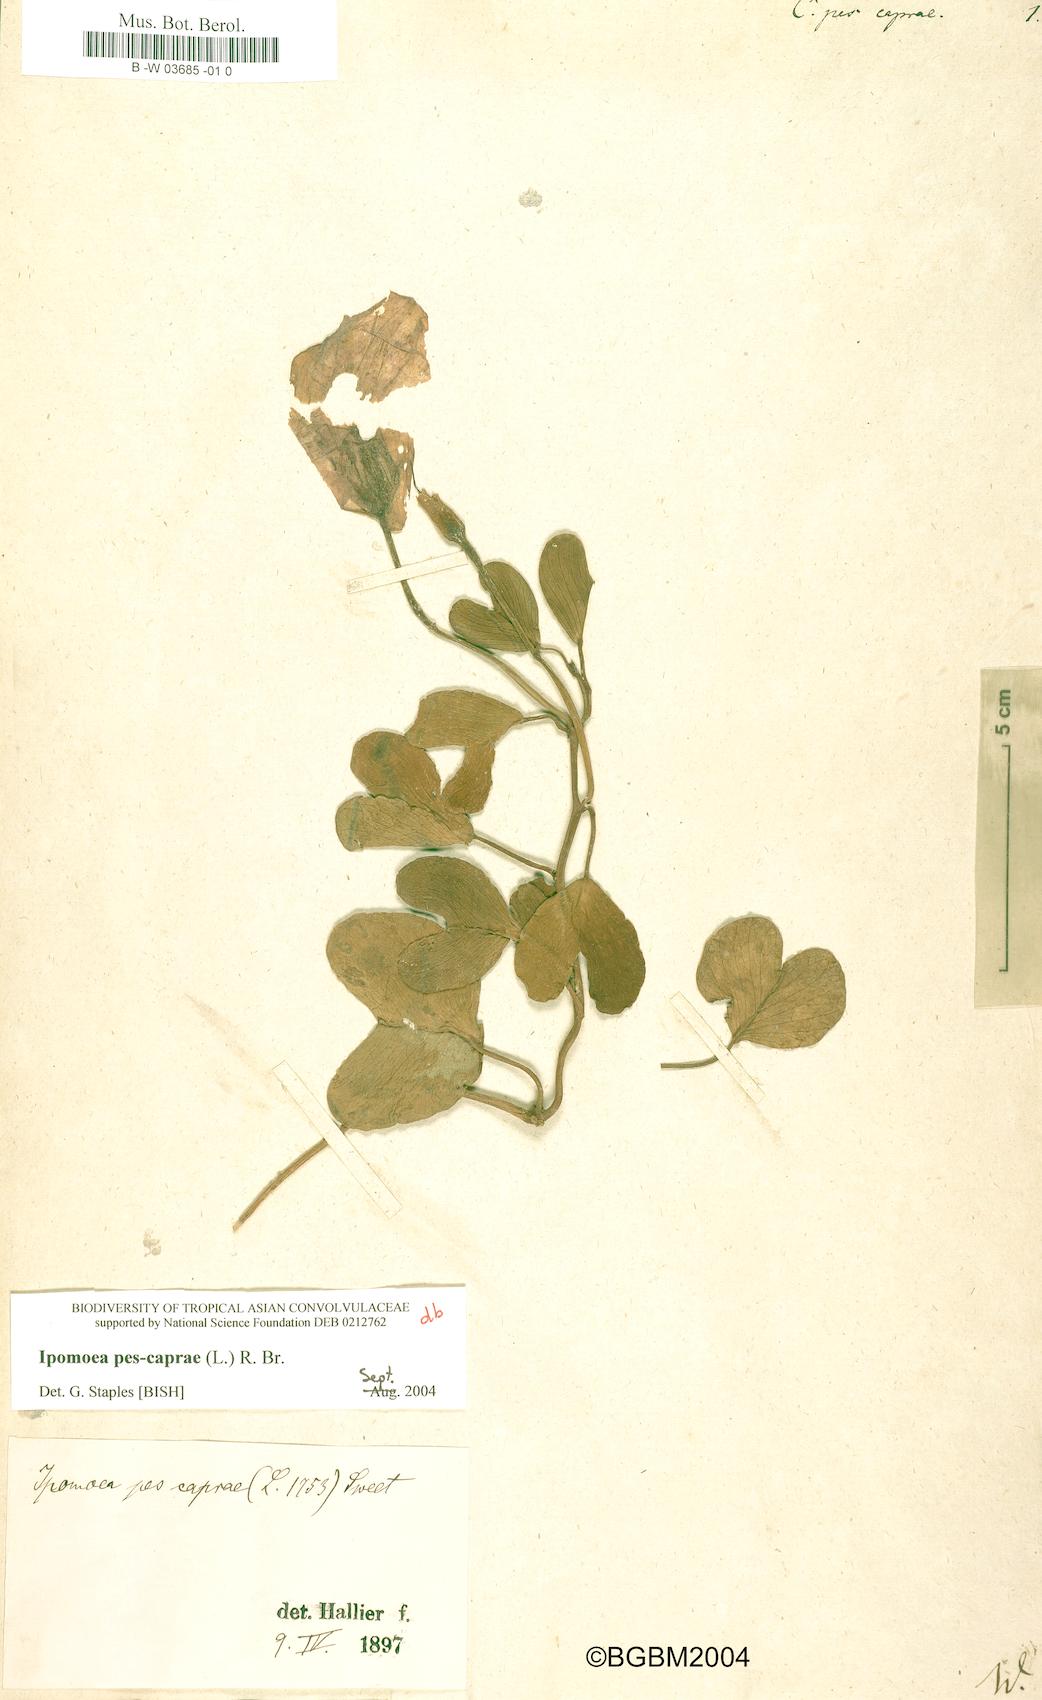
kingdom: Plantae
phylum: Tracheophyta
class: Magnoliopsida
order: Solanales
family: Convolvulaceae
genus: Ipomoea
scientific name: Ipomoea pes-caprae
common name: Beach morning glory
